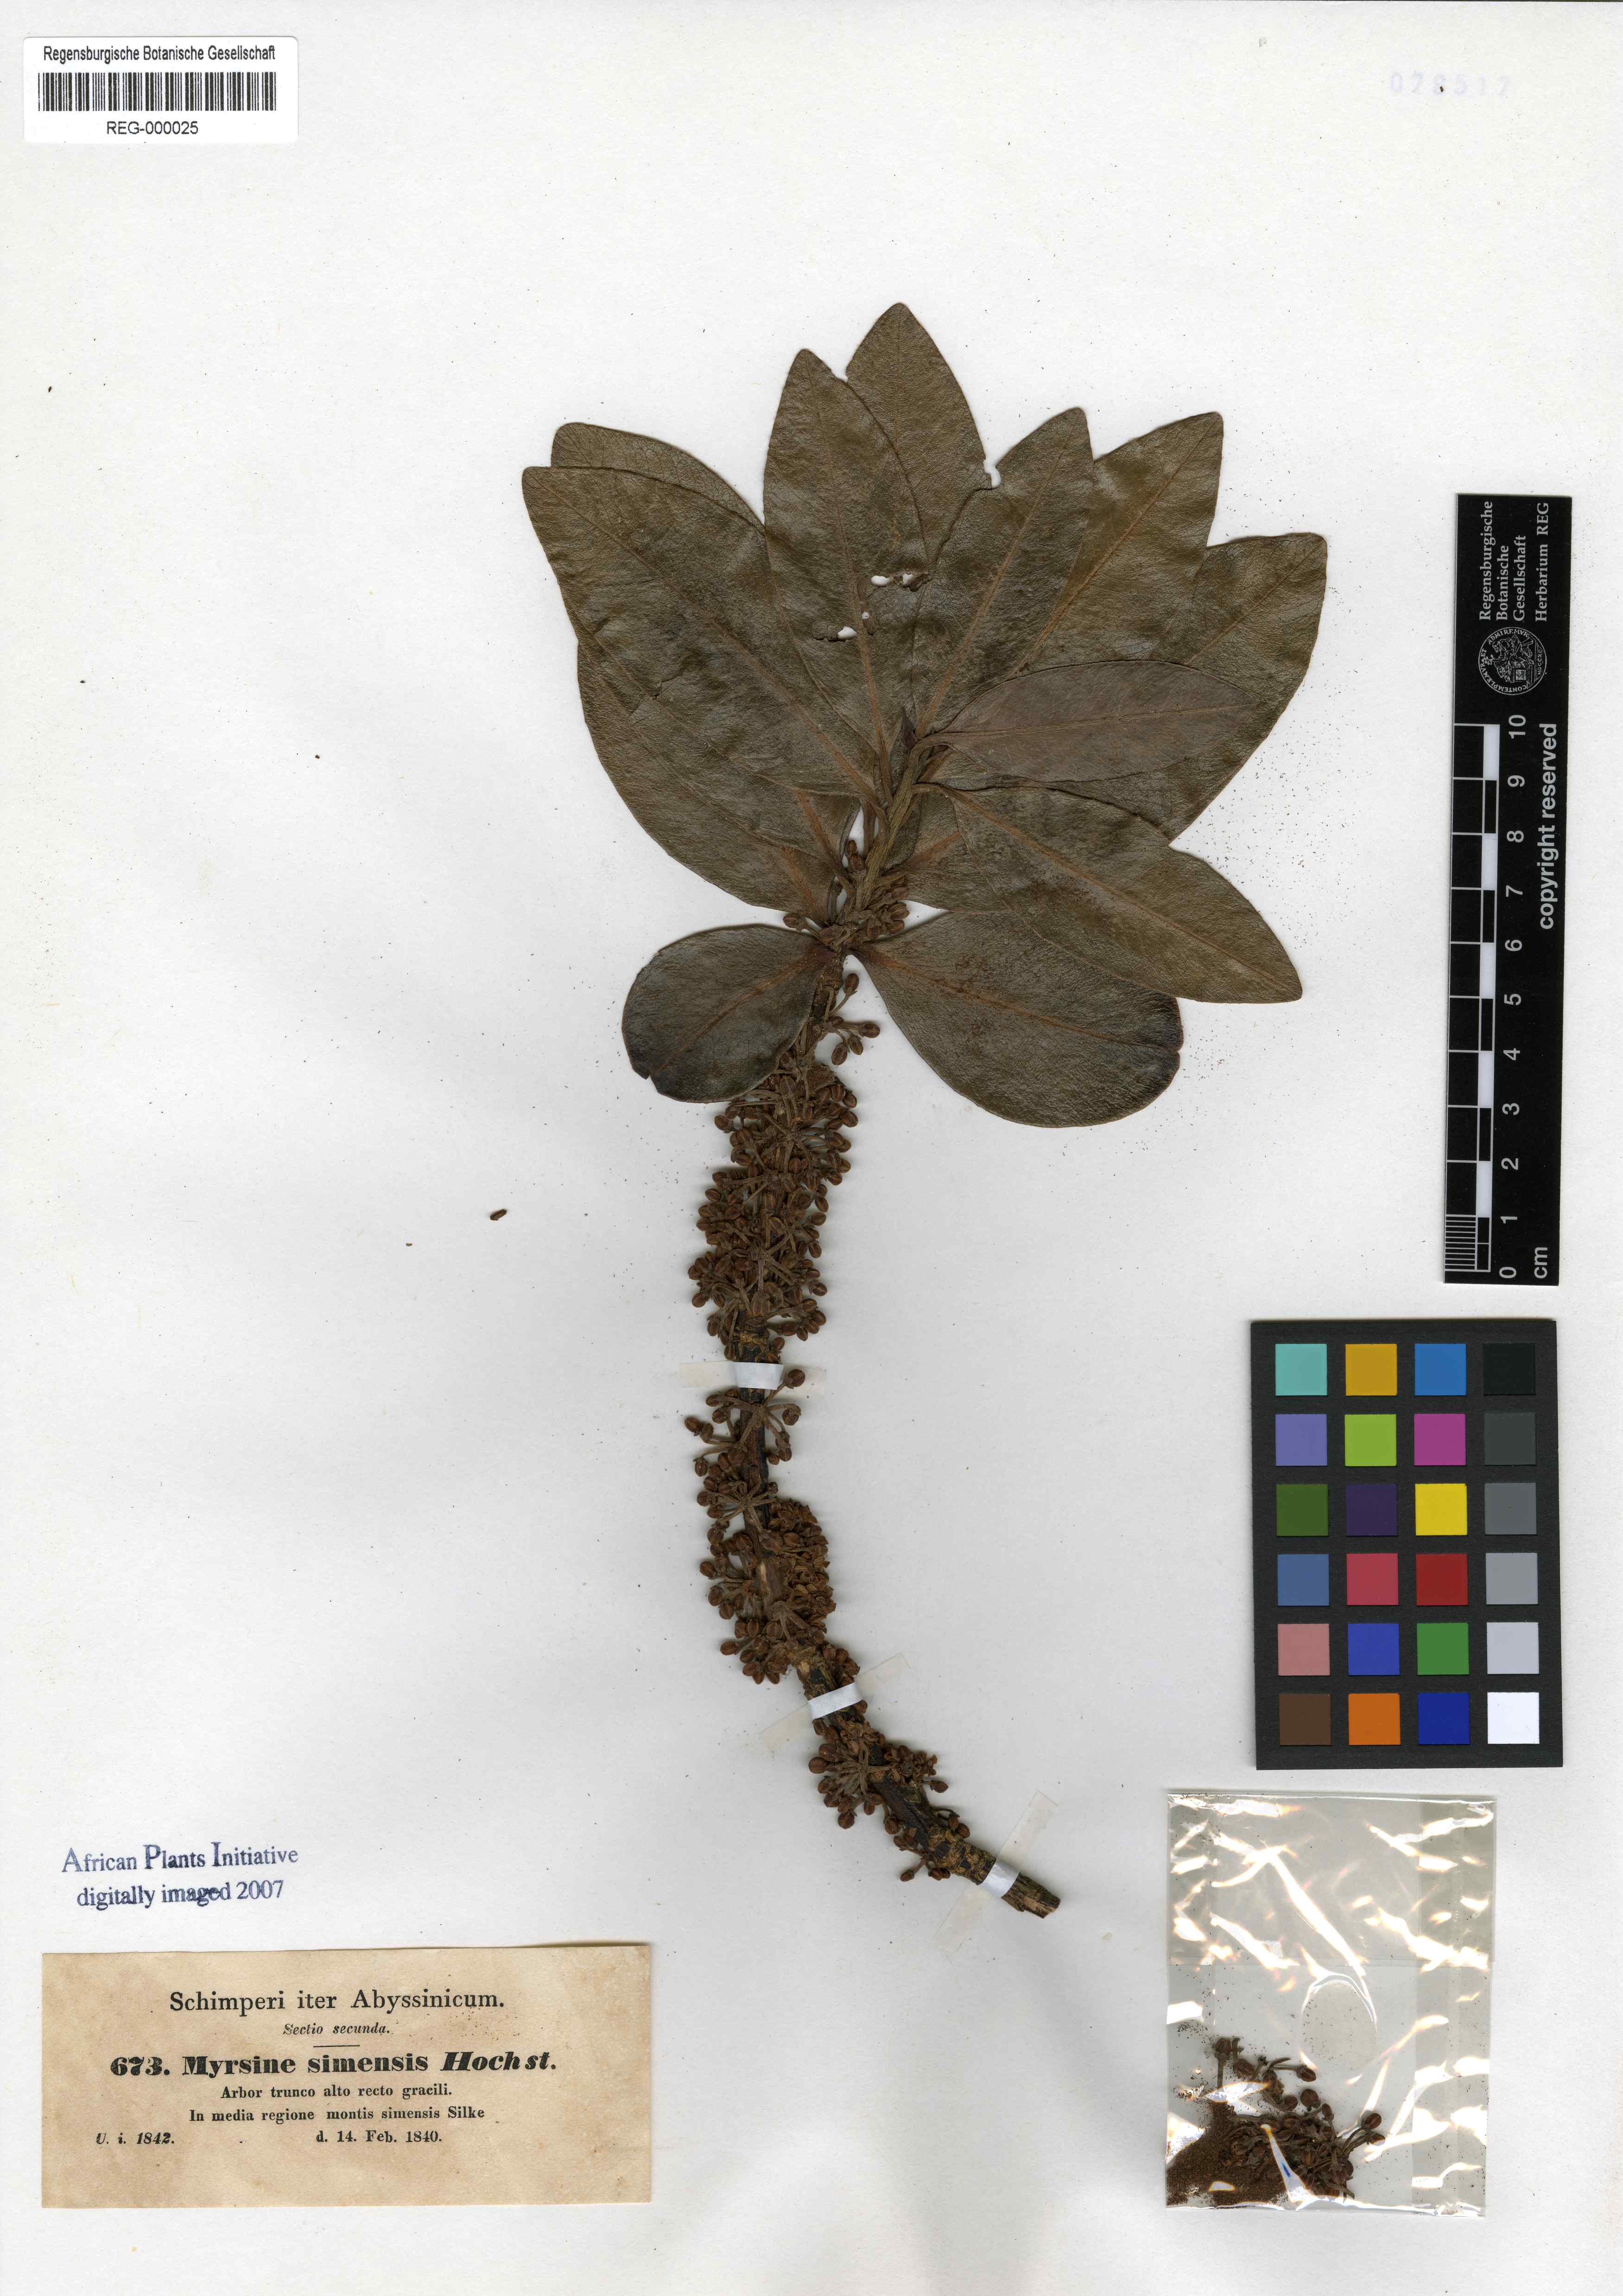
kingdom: Plantae
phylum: Tracheophyta
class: Magnoliopsida
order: Ericales
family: Primulaceae
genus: Myrsine
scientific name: Myrsine melanophloeos
